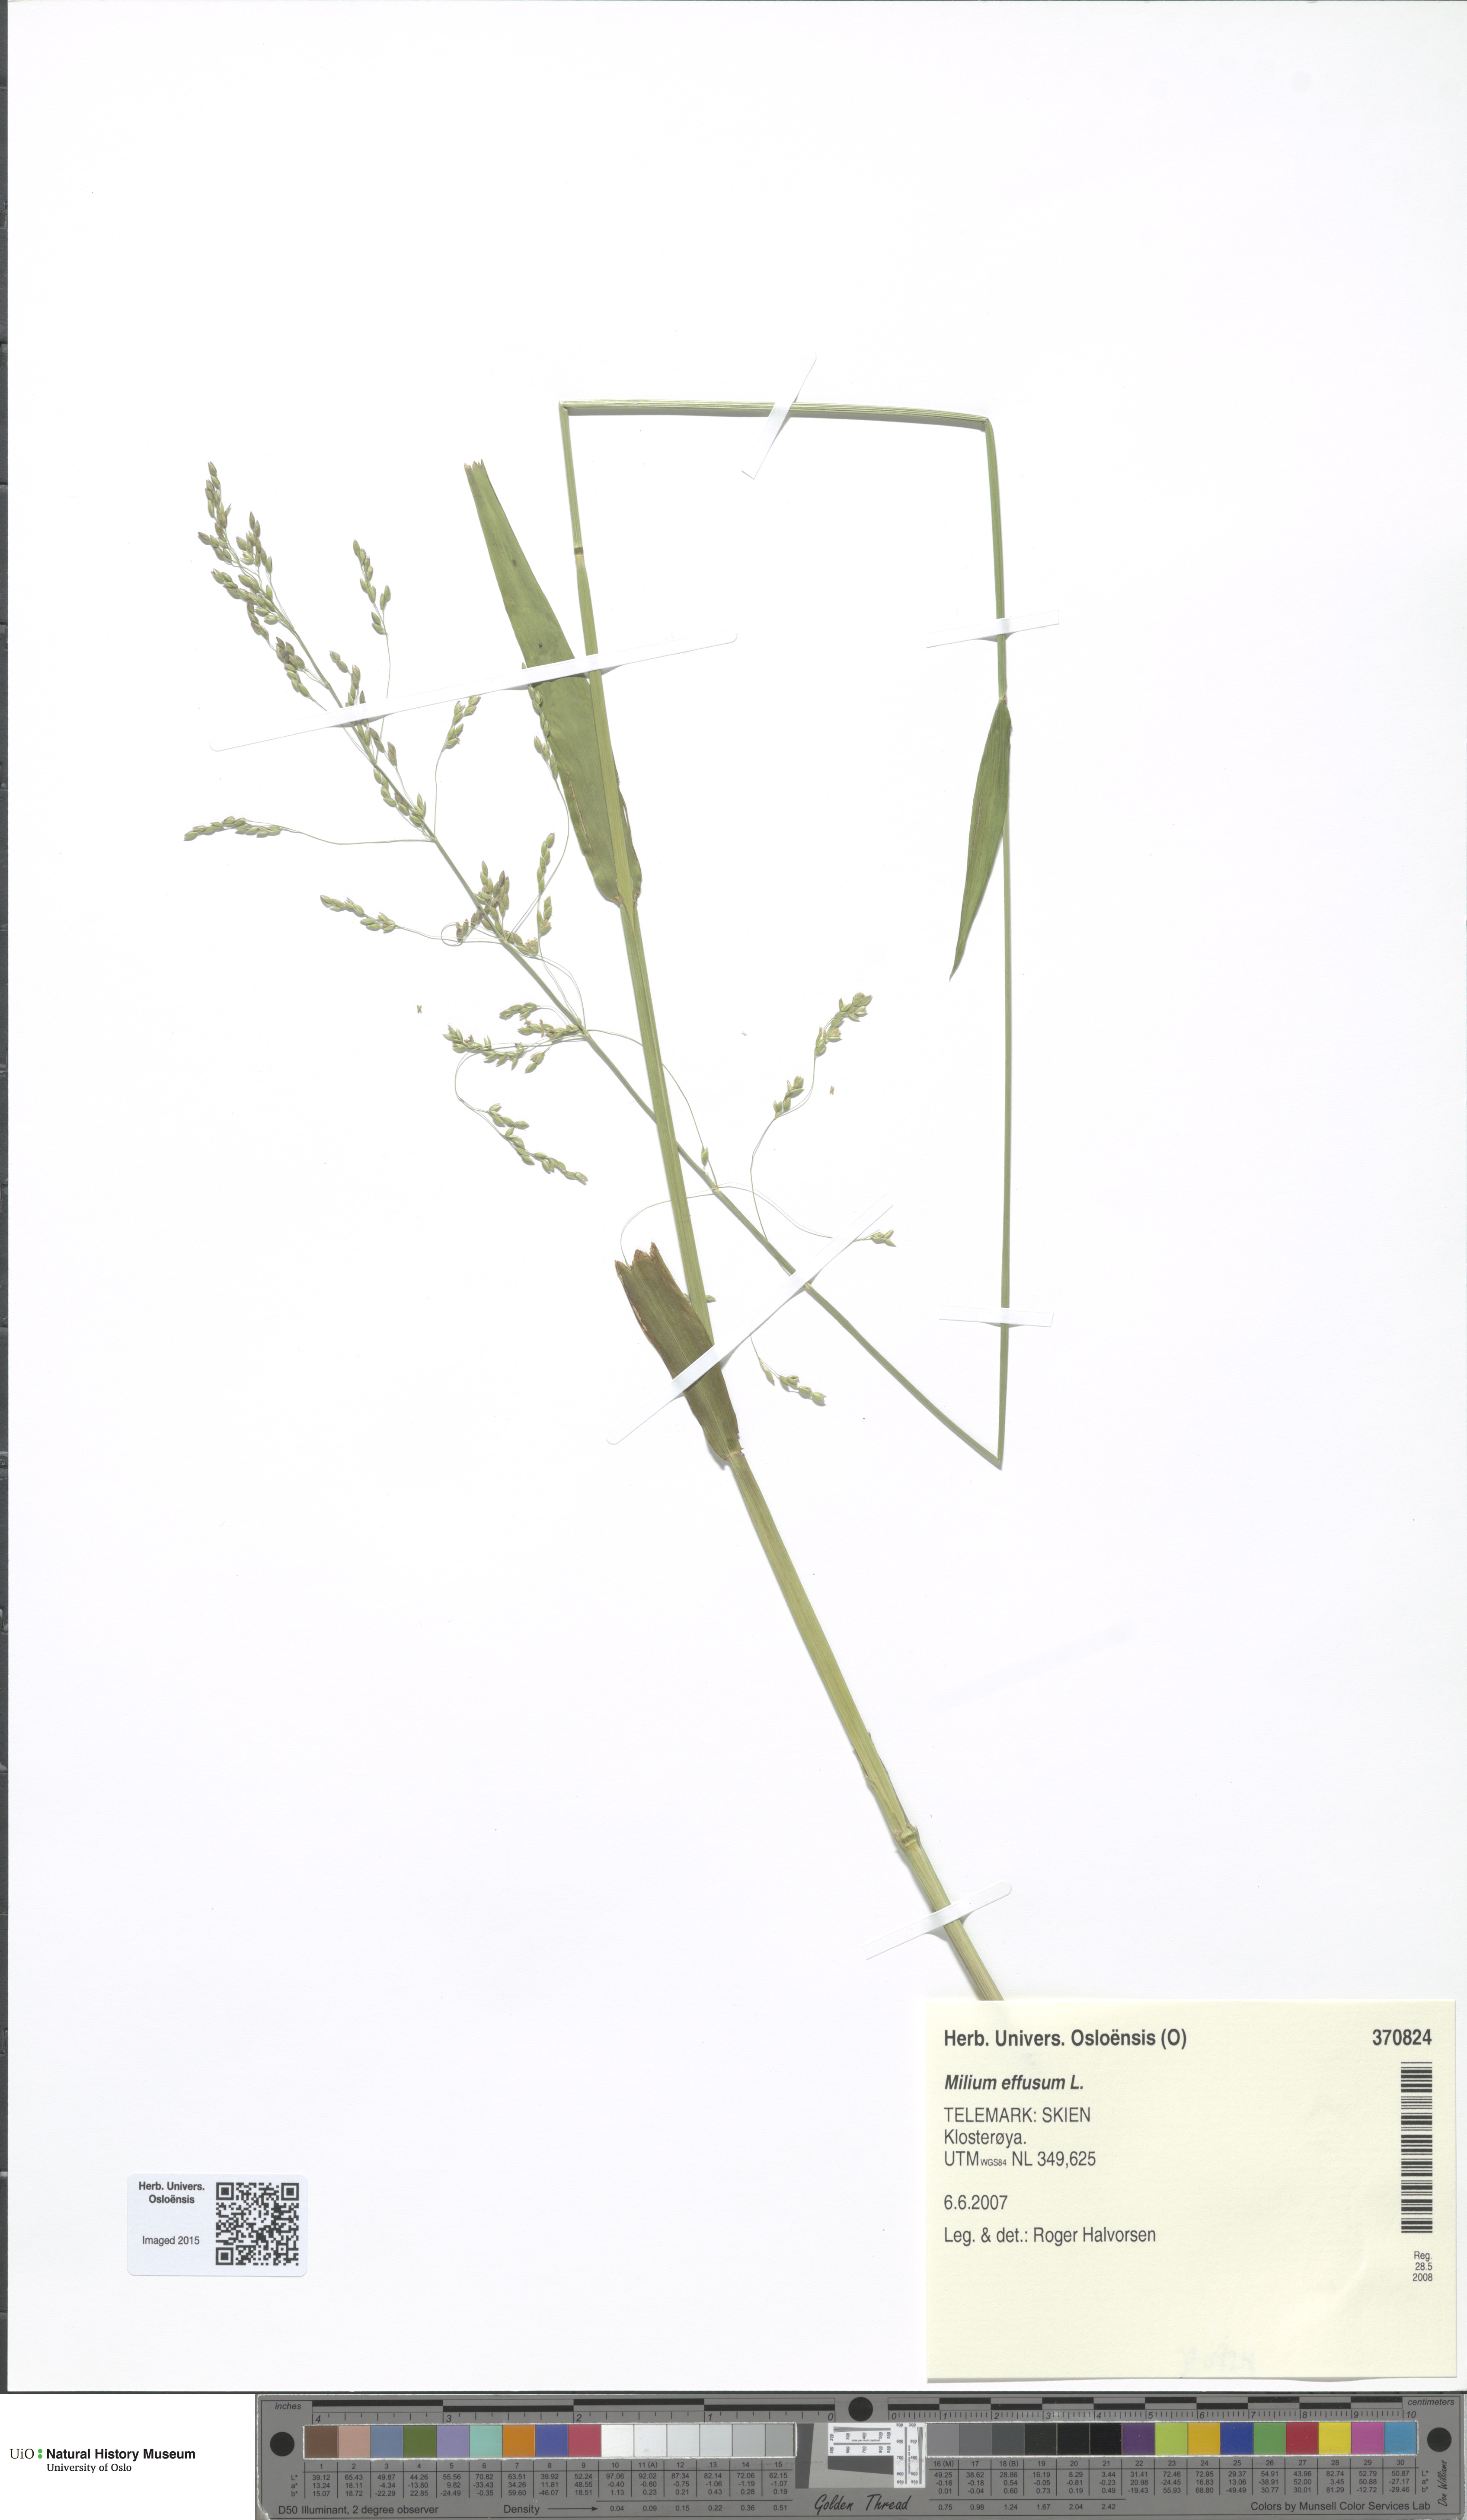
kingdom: Plantae
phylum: Tracheophyta
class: Liliopsida
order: Poales
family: Poaceae
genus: Milium
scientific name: Milium effusum
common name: Wood millet
